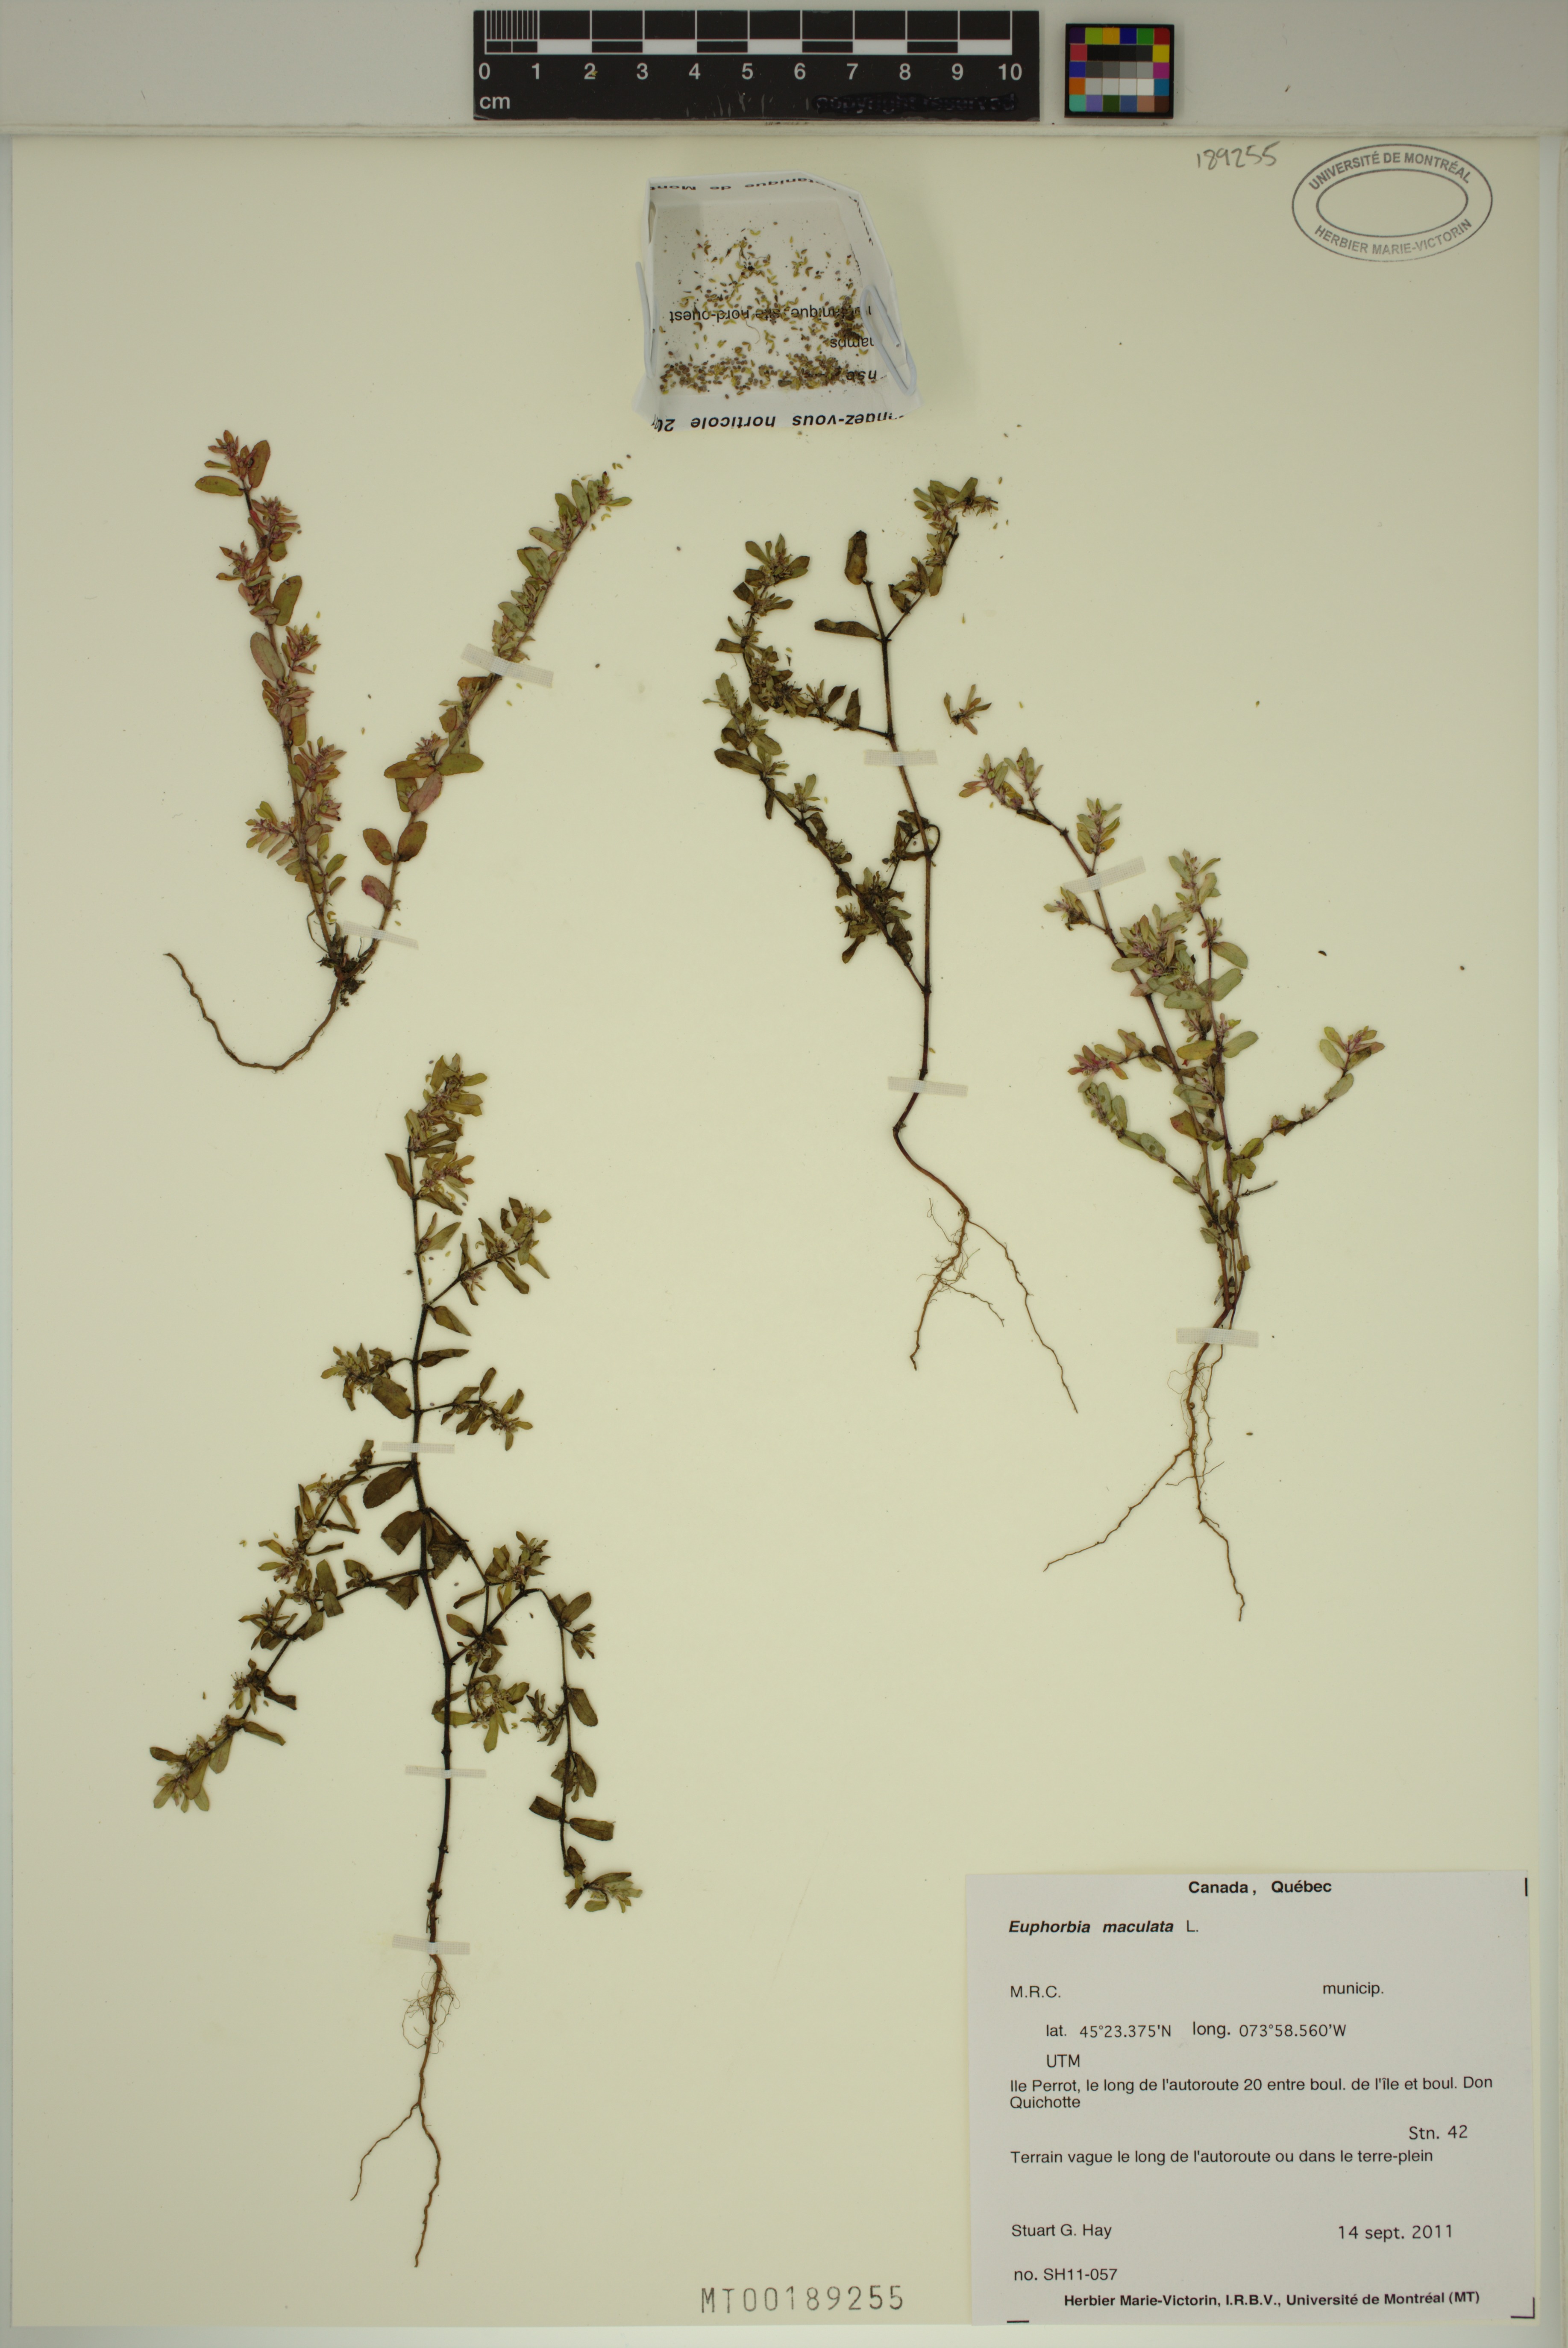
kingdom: Plantae
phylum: Tracheophyta
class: Magnoliopsida
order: Malpighiales
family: Euphorbiaceae
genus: Euphorbia
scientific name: Euphorbia maculata
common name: Spotted spurge
